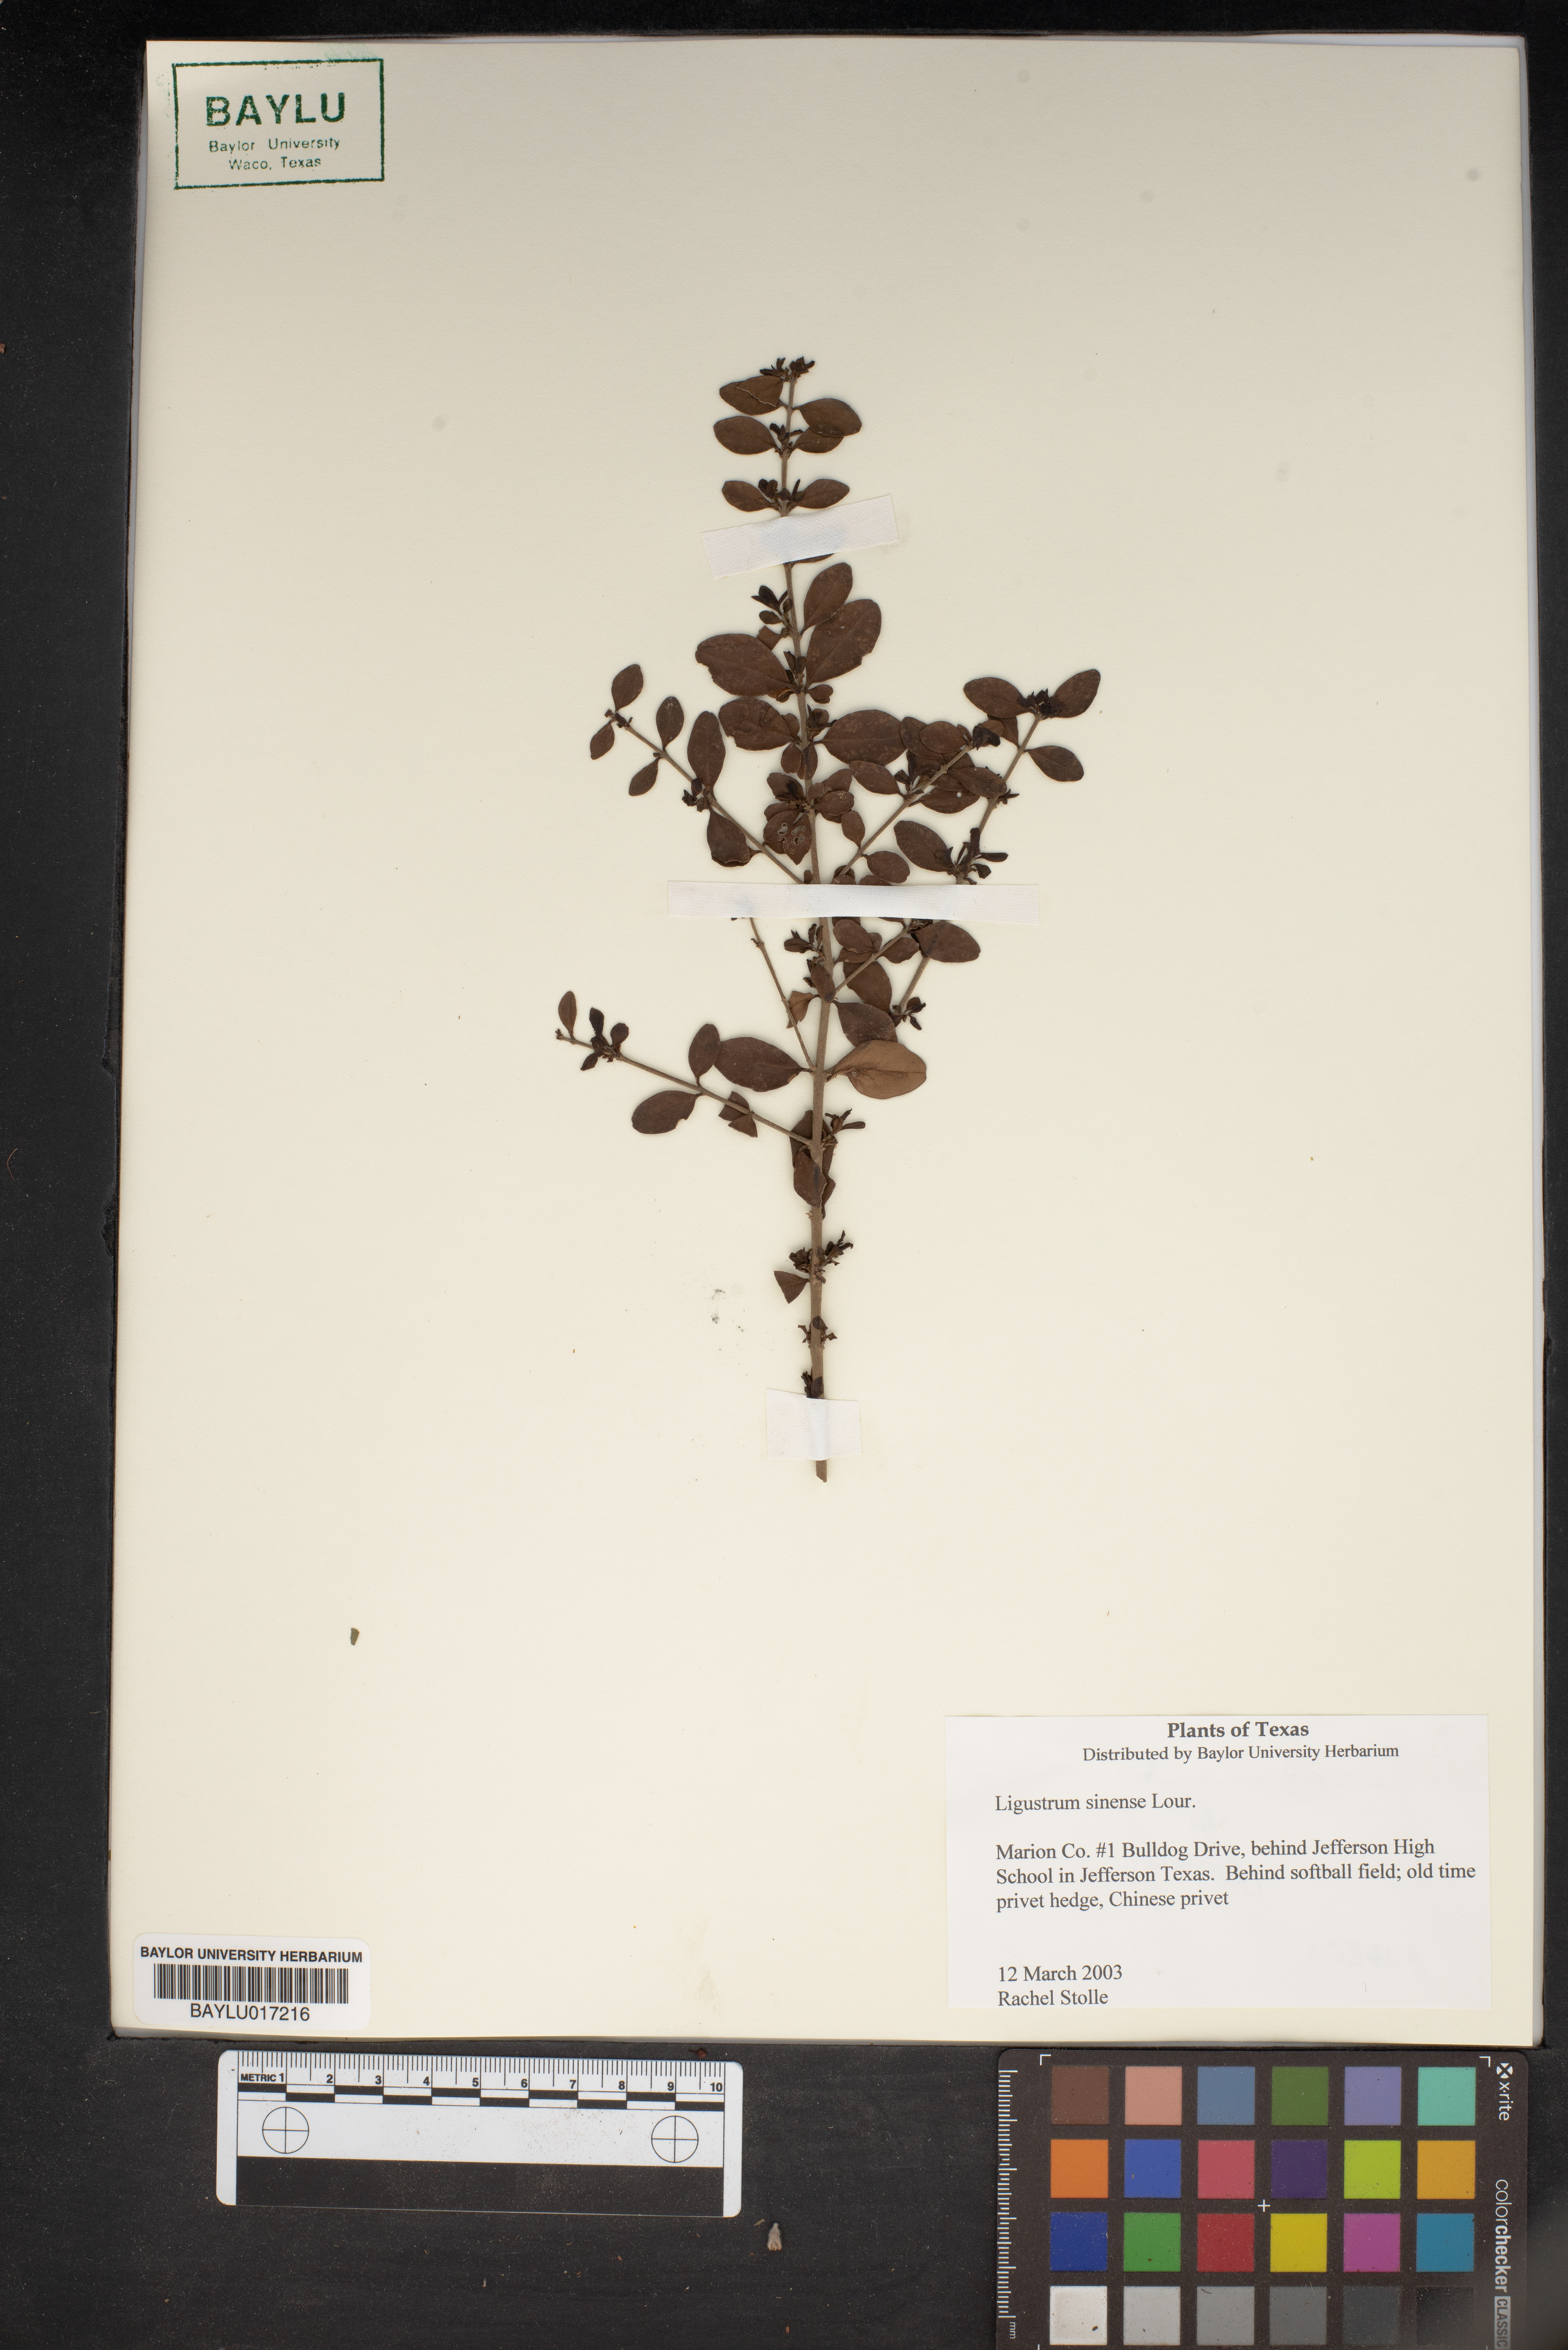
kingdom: Plantae
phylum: Tracheophyta
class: Magnoliopsida
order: Lamiales
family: Oleaceae
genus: Ligustrum
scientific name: Ligustrum sinense
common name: Chinese privet
